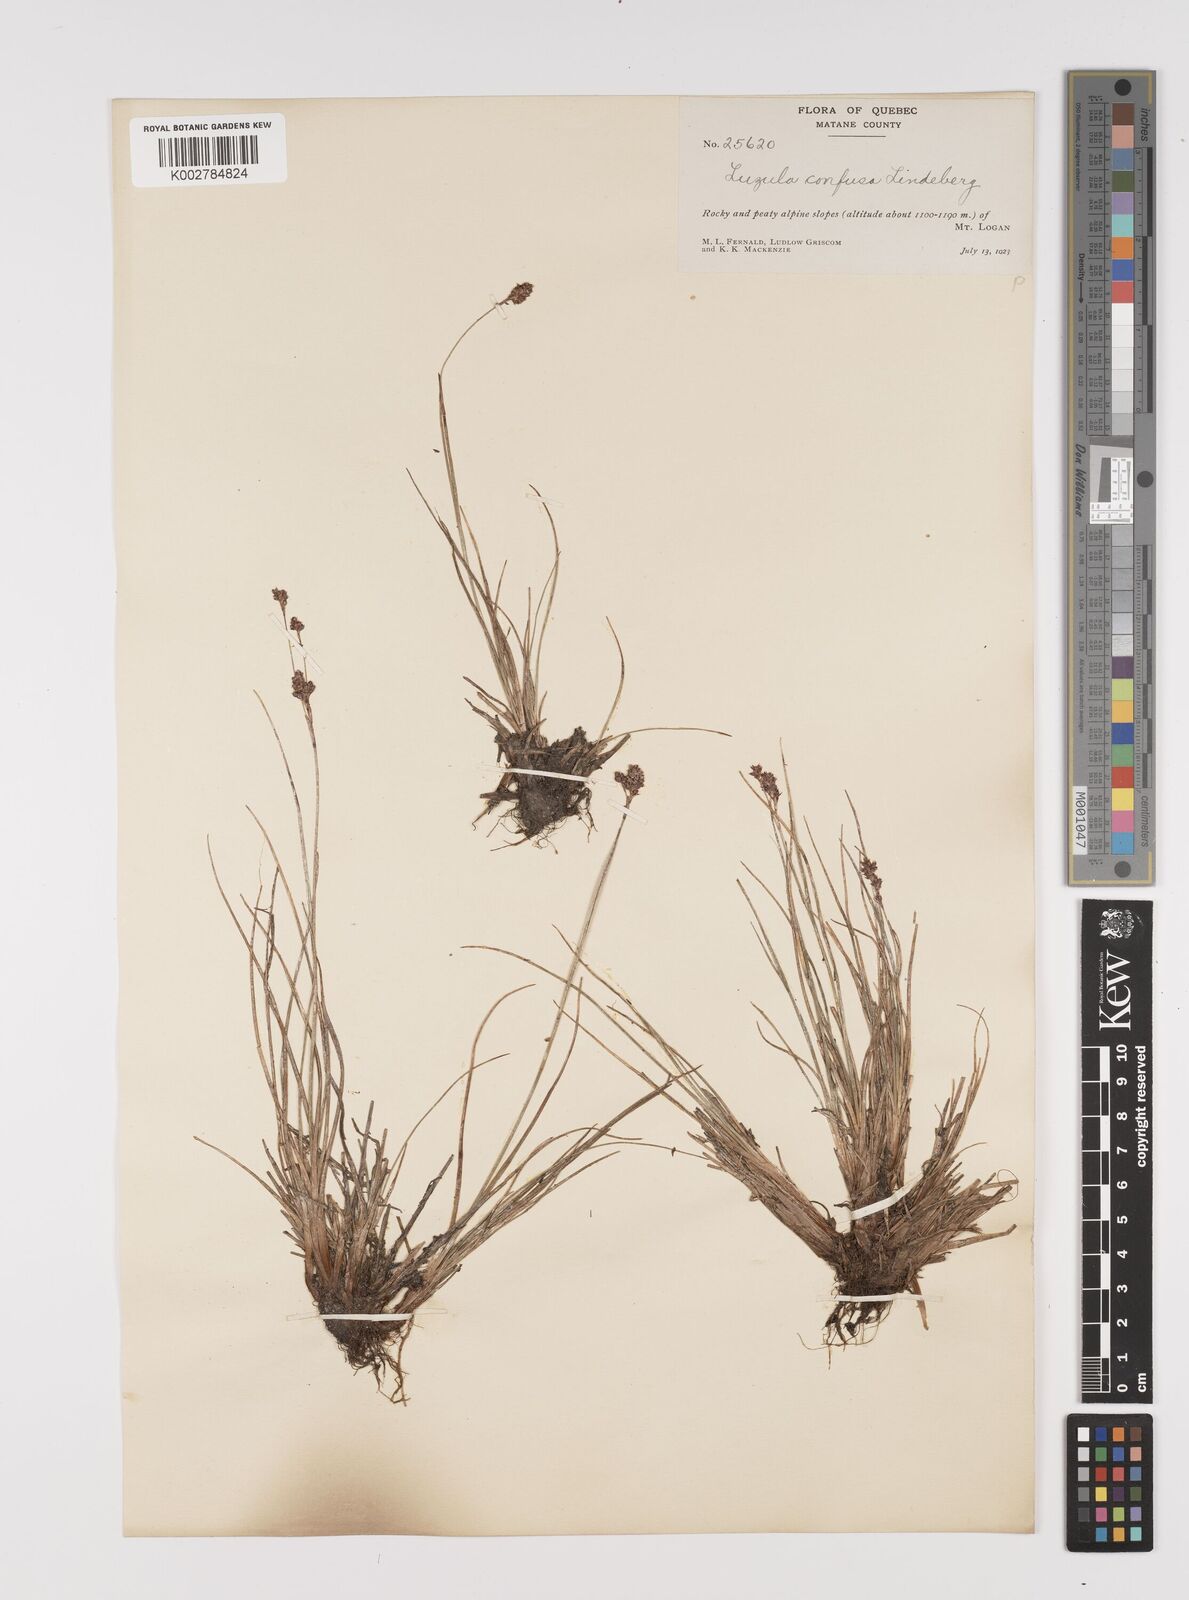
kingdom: Plantae
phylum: Tracheophyta
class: Liliopsida
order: Poales
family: Juncaceae
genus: Luzula
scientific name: Luzula confusa
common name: Northern wood rush
